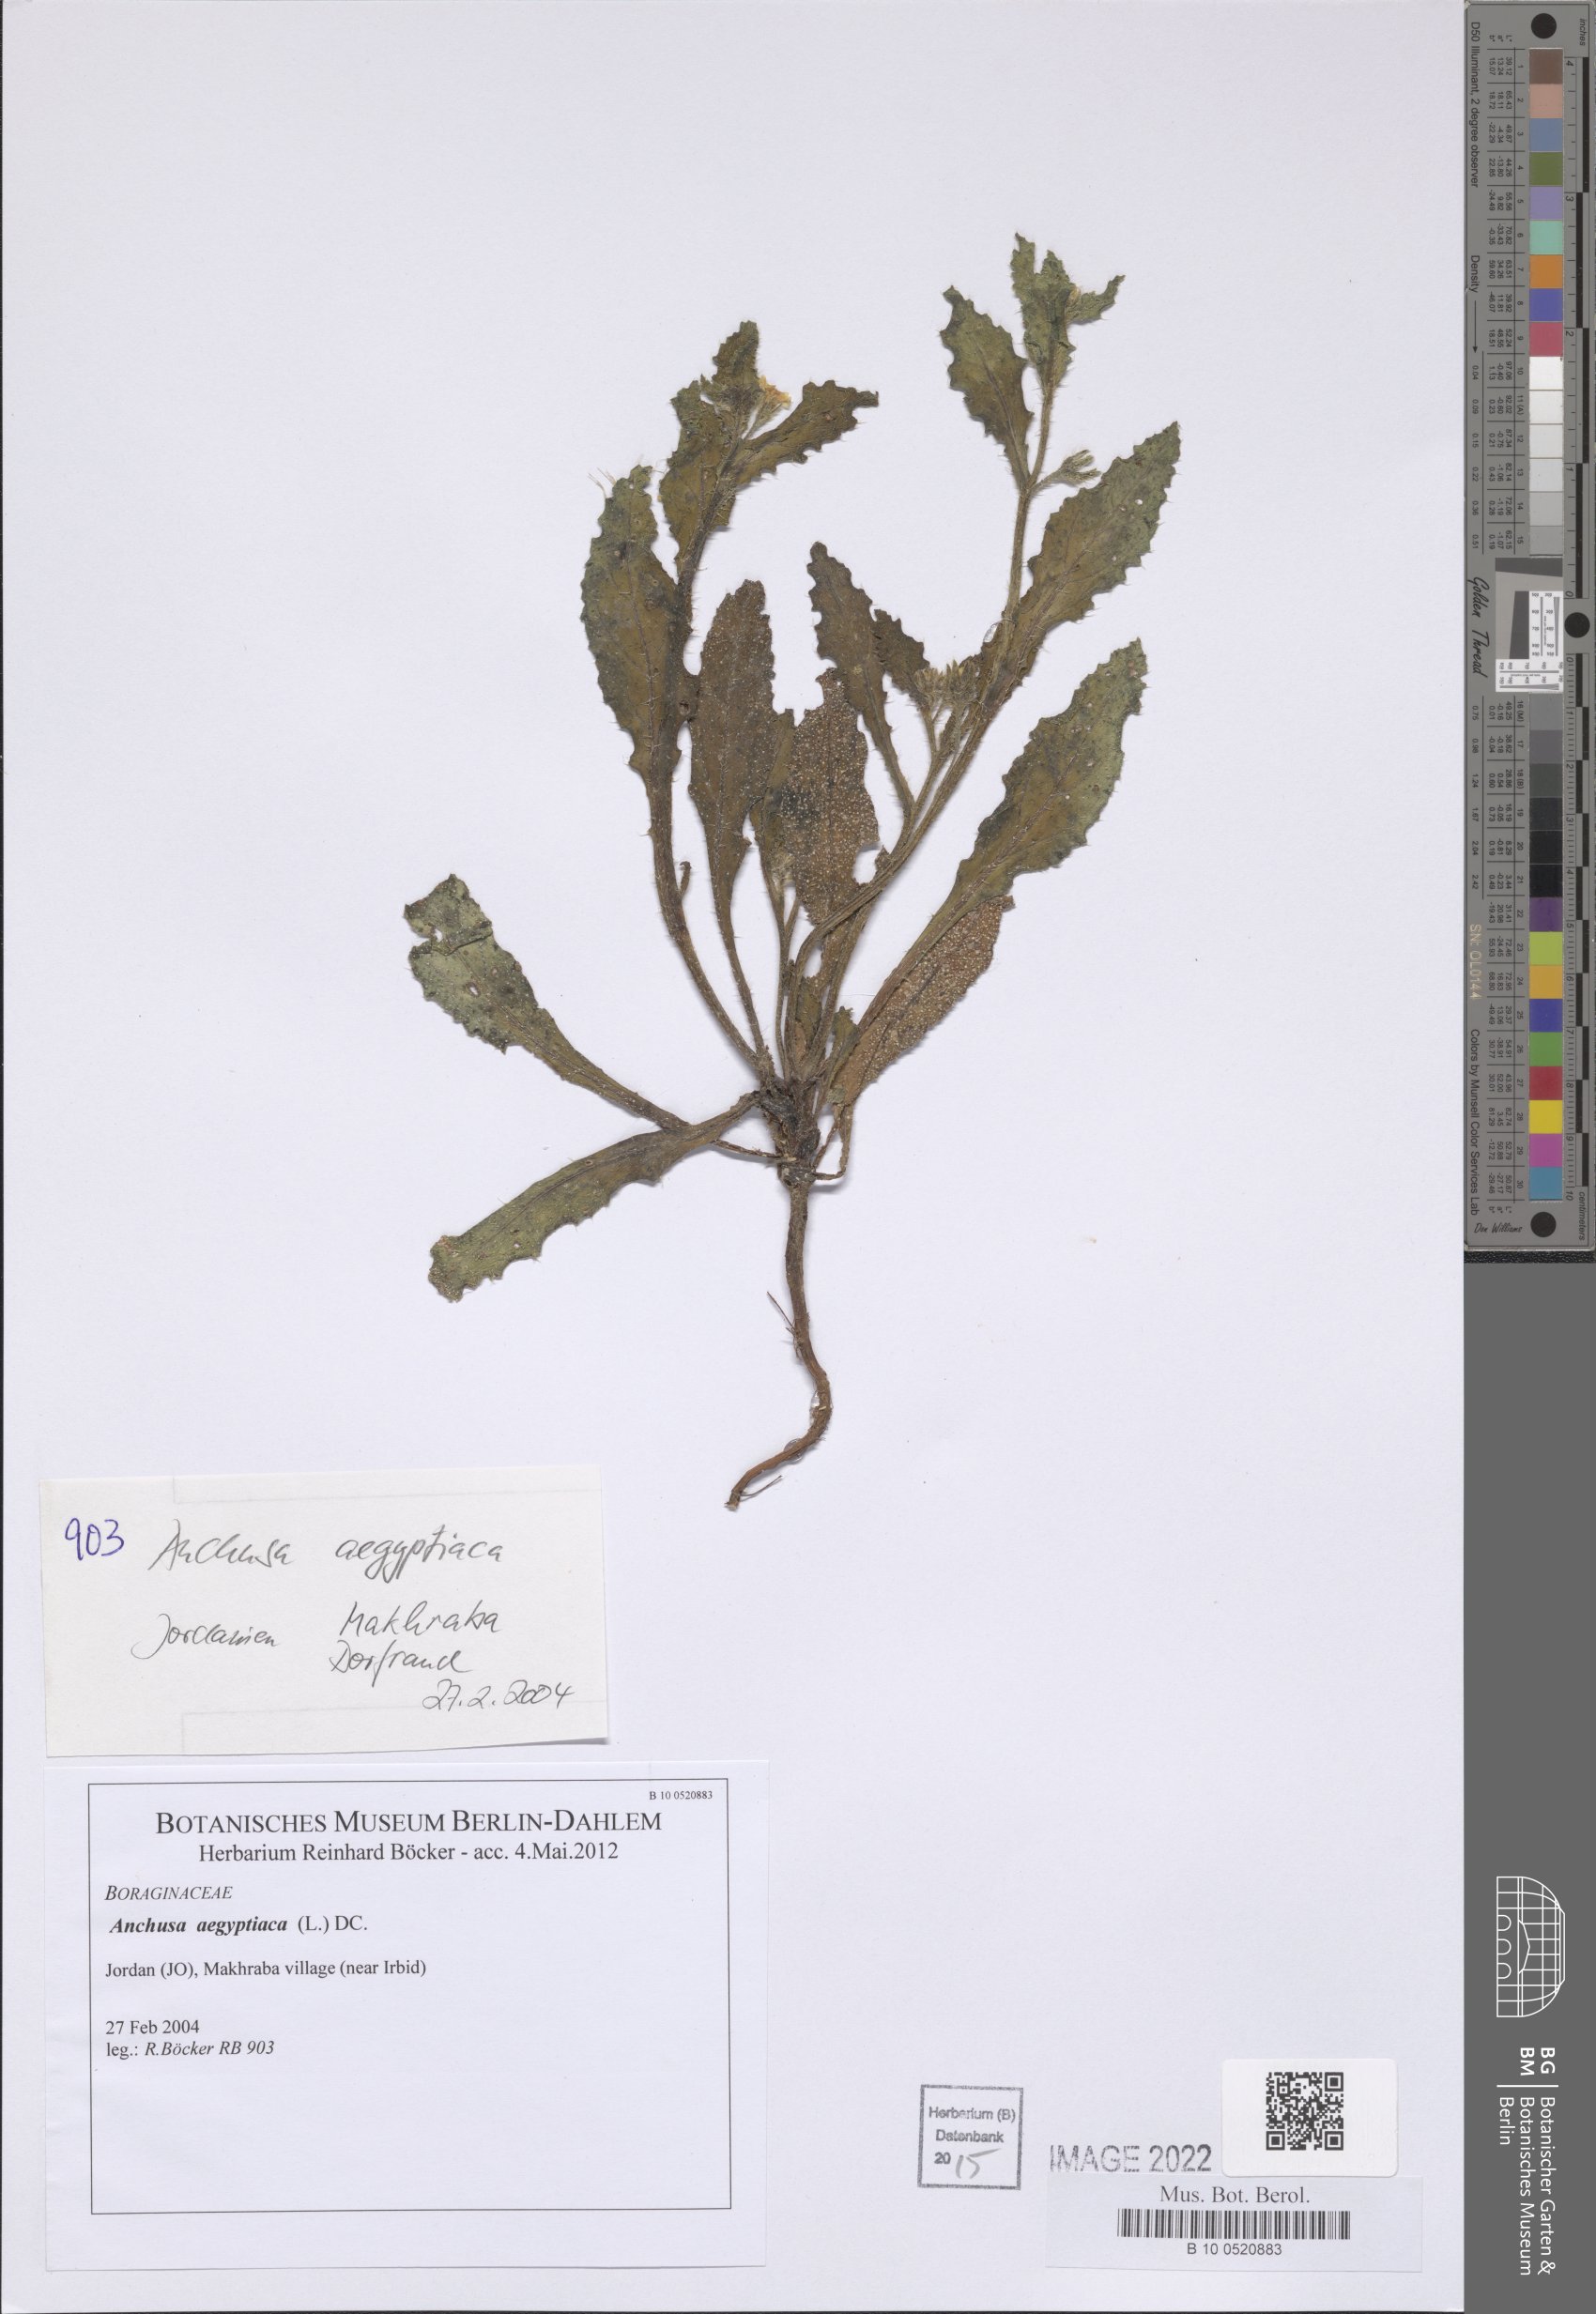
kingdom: Plantae
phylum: Tracheophyta
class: Magnoliopsida
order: Boraginales
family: Boraginaceae
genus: Lycopsis
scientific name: Lycopsis aegyptiaca
